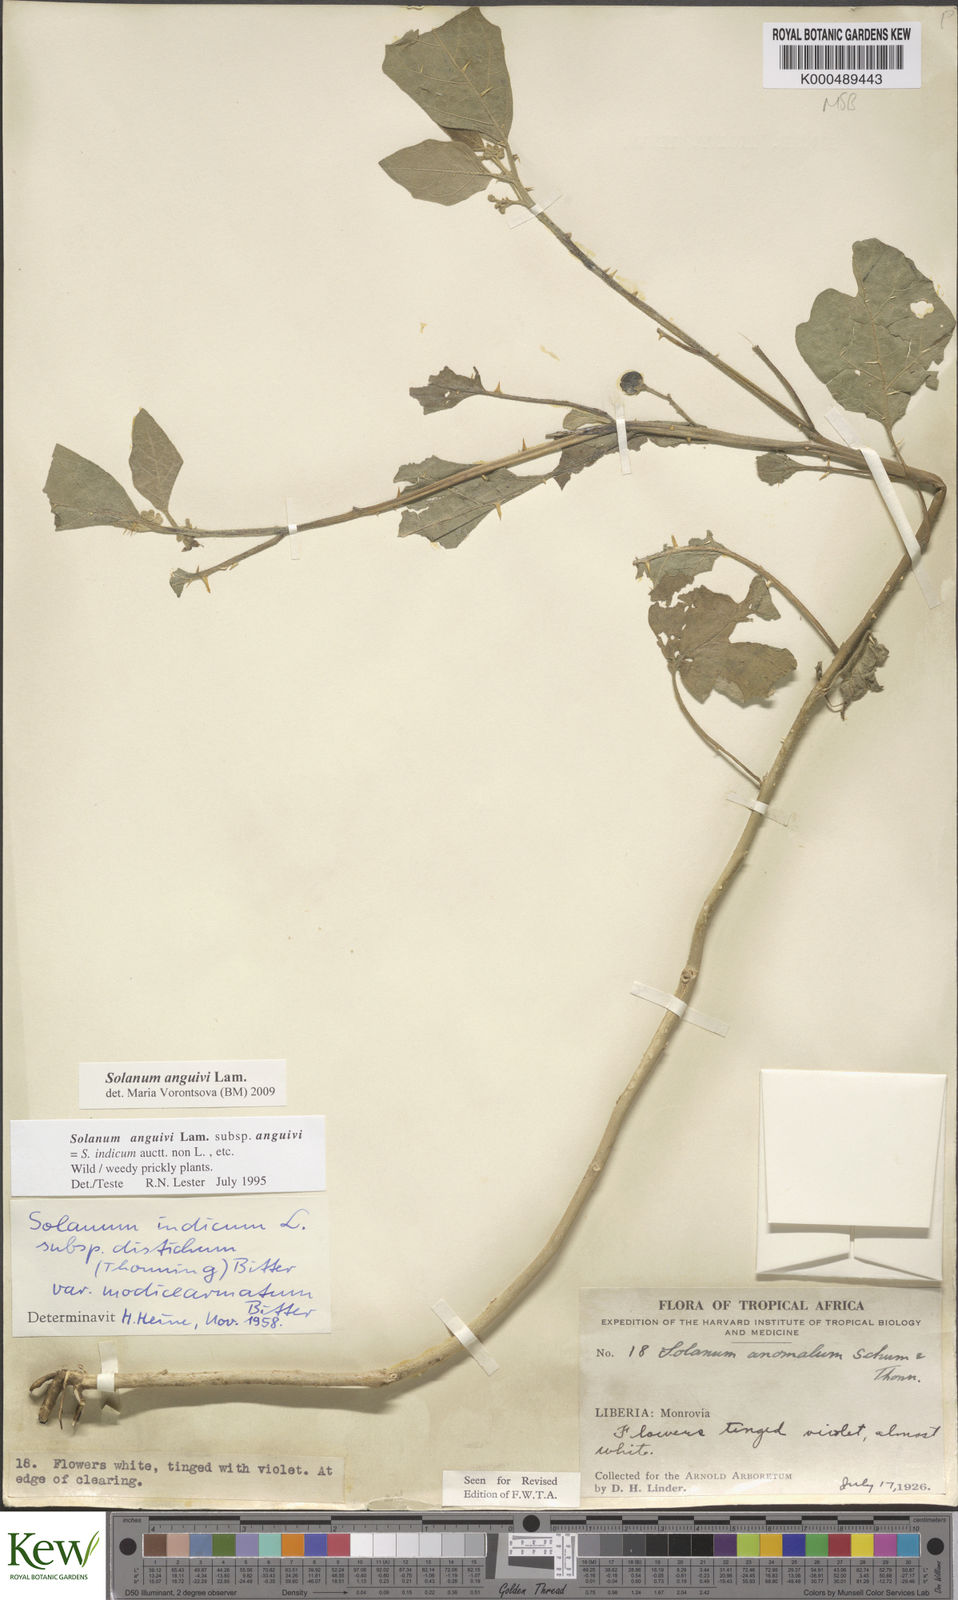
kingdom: Plantae
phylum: Tracheophyta
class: Magnoliopsida
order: Solanales
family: Solanaceae
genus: Solanum
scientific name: Solanum anguivi
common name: Forest bitterberry
